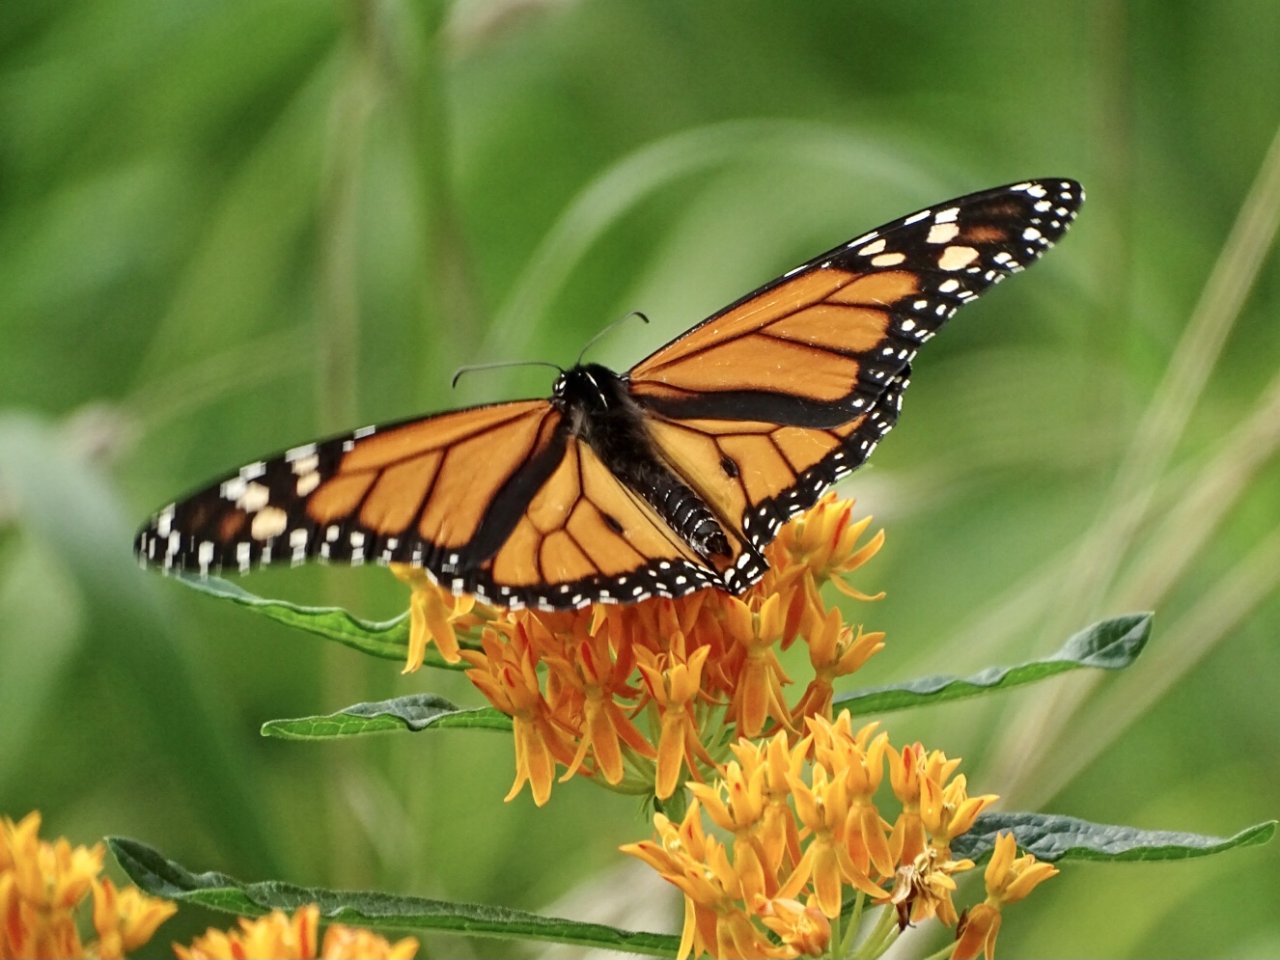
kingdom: Animalia
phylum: Arthropoda
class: Insecta
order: Lepidoptera
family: Nymphalidae
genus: Danaus
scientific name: Danaus plexippus
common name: Monarch
